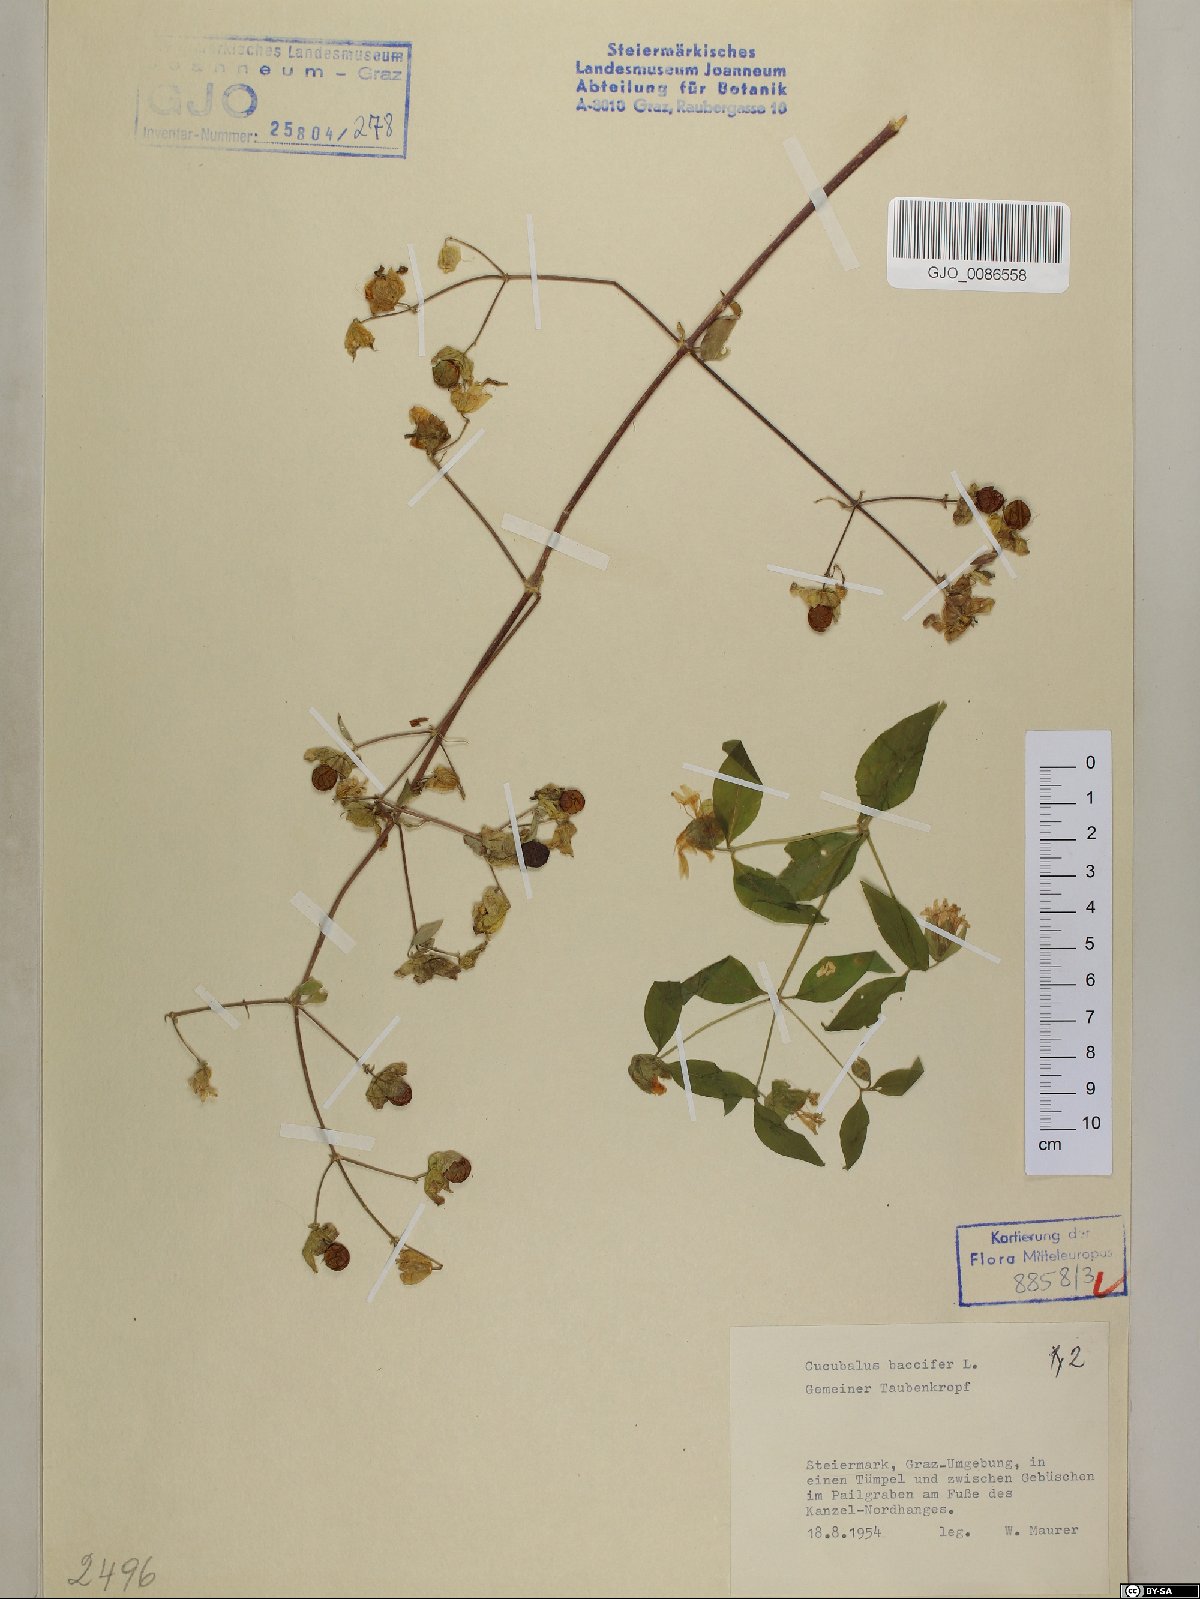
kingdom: Plantae
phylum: Tracheophyta
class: Magnoliopsida
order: Caryophyllales
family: Caryophyllaceae
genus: Silene
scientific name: Silene baccifera
